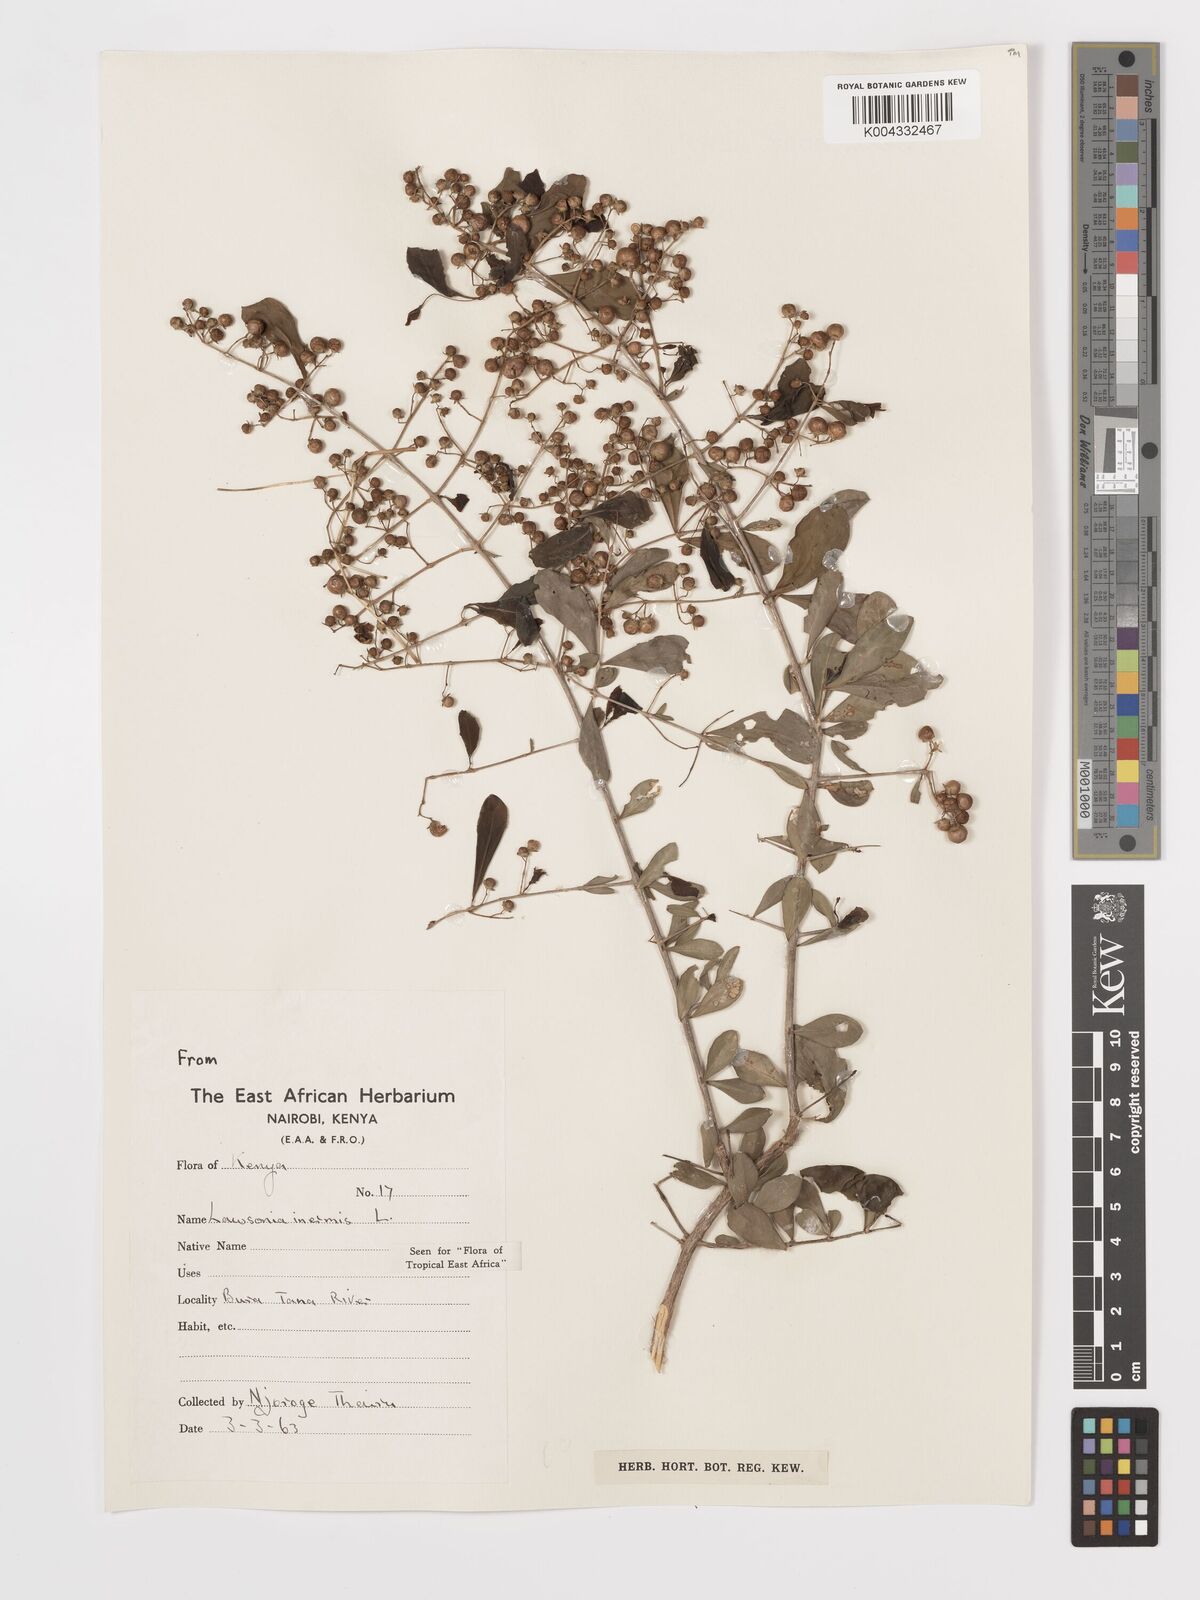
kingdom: Plantae
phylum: Tracheophyta
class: Magnoliopsida
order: Myrtales
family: Lythraceae
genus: Lawsonia
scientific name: Lawsonia inermis
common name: Henna
